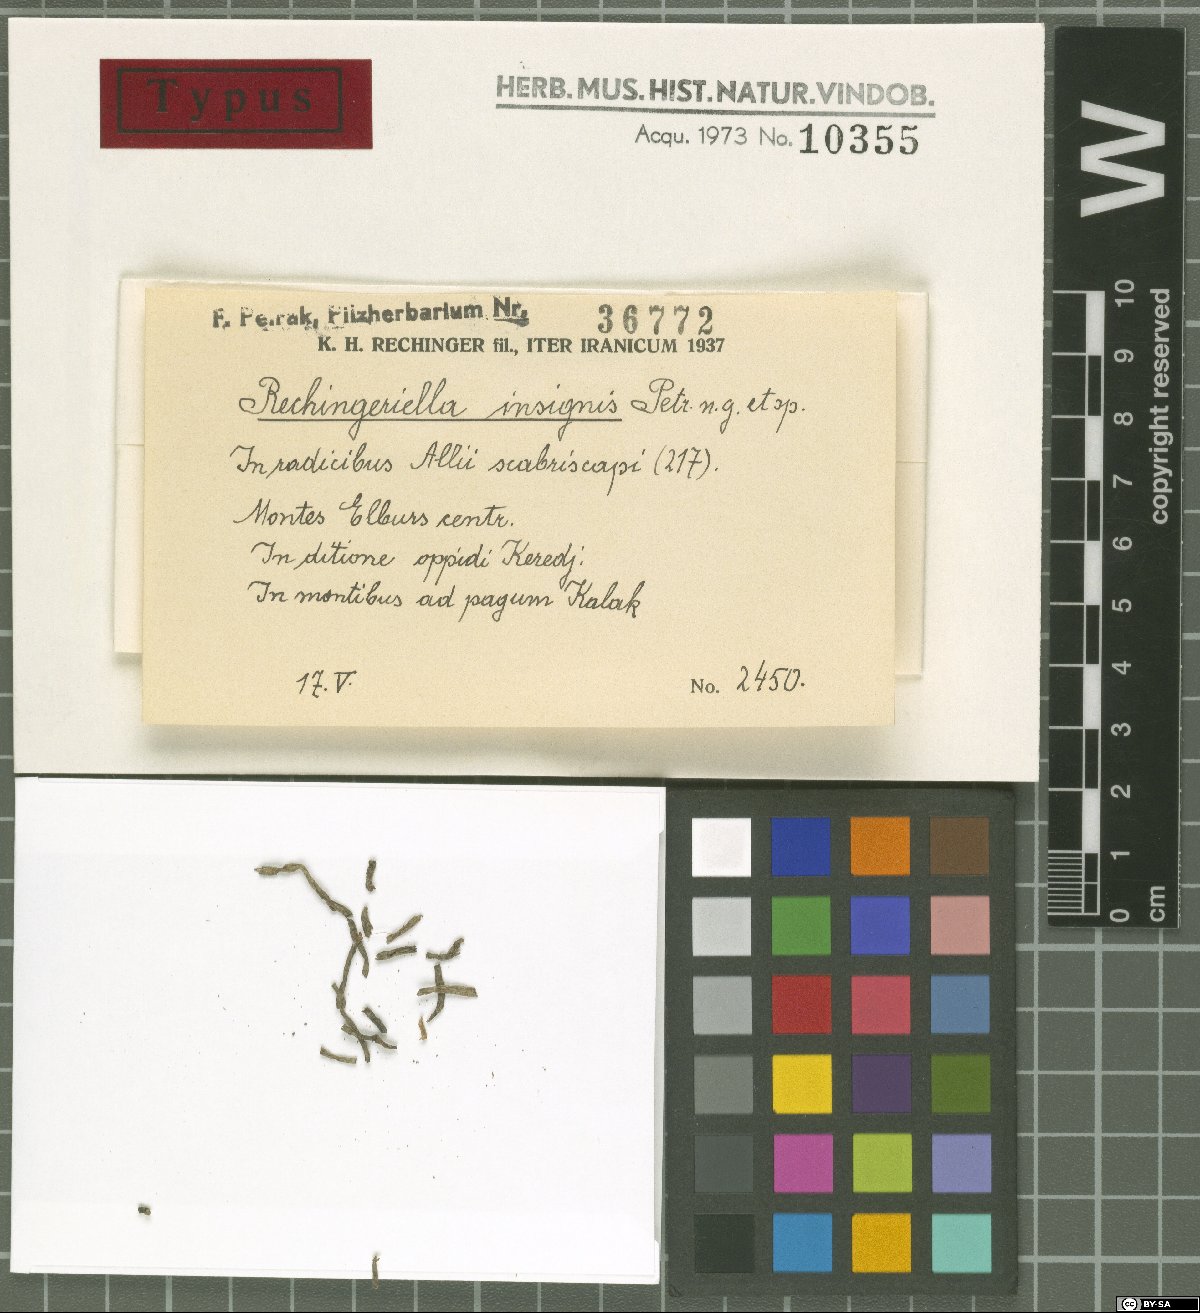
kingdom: Fungi
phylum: Ascomycota
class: Dothideomycetes
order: Pleosporales
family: Zopfiaceae
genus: Rechingeriella
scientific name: Rechingeriella insignis
